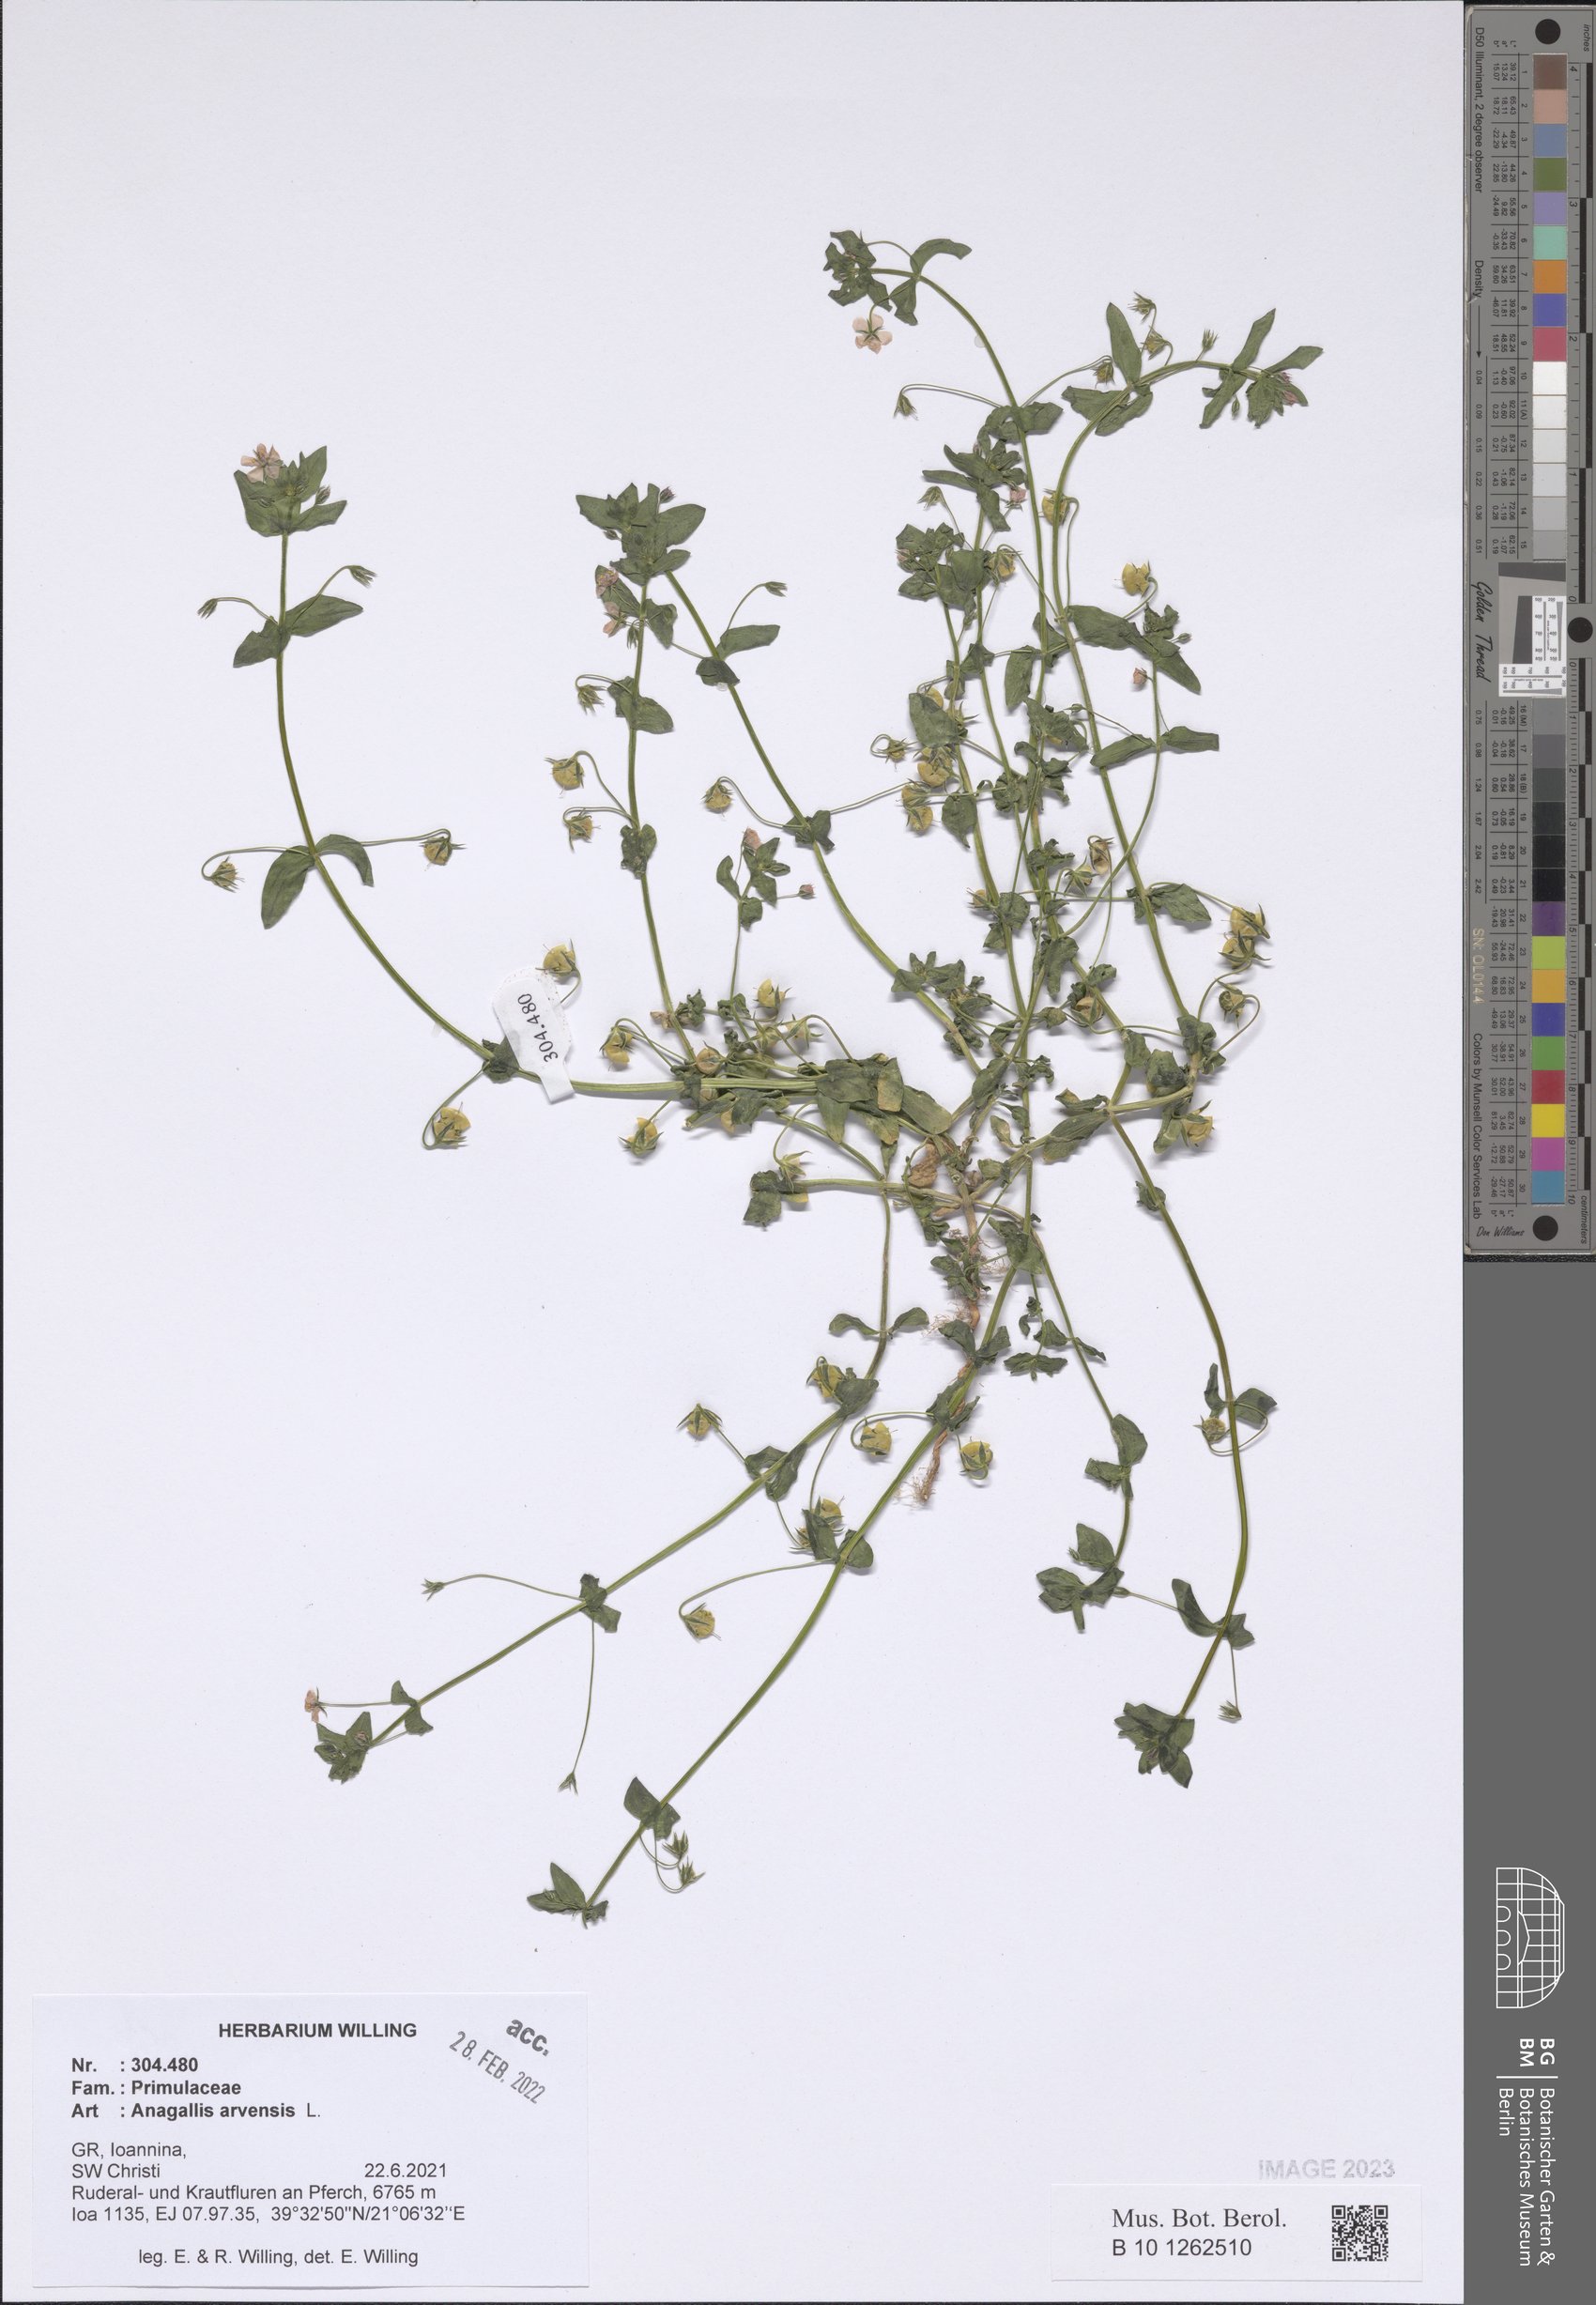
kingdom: Plantae
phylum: Tracheophyta
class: Magnoliopsida
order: Ericales
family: Primulaceae
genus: Lysimachia
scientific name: Lysimachia arvensis
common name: Scarlet pimpernel
